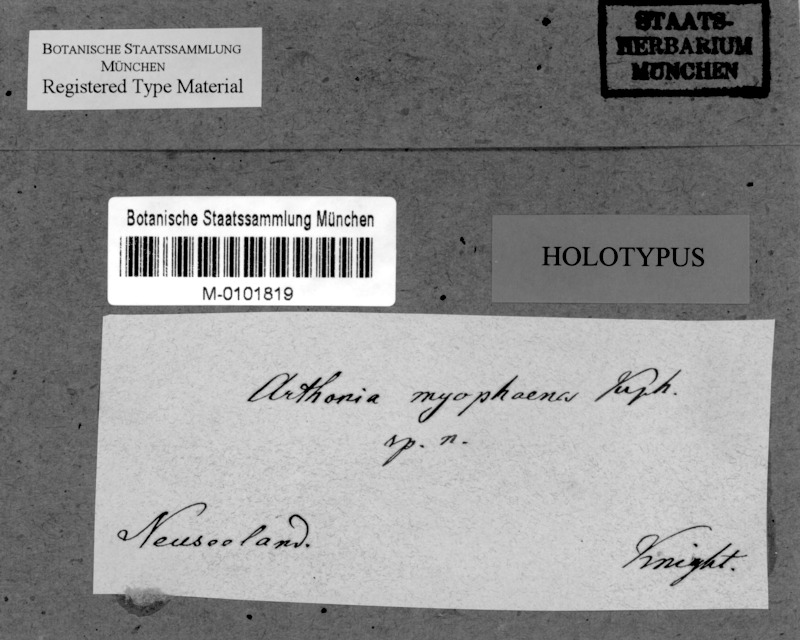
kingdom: Fungi
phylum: Ascomycota
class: Arthoniomycetes
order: Arthoniales
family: Arthoniaceae
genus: Arthonia
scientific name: Arthonia
